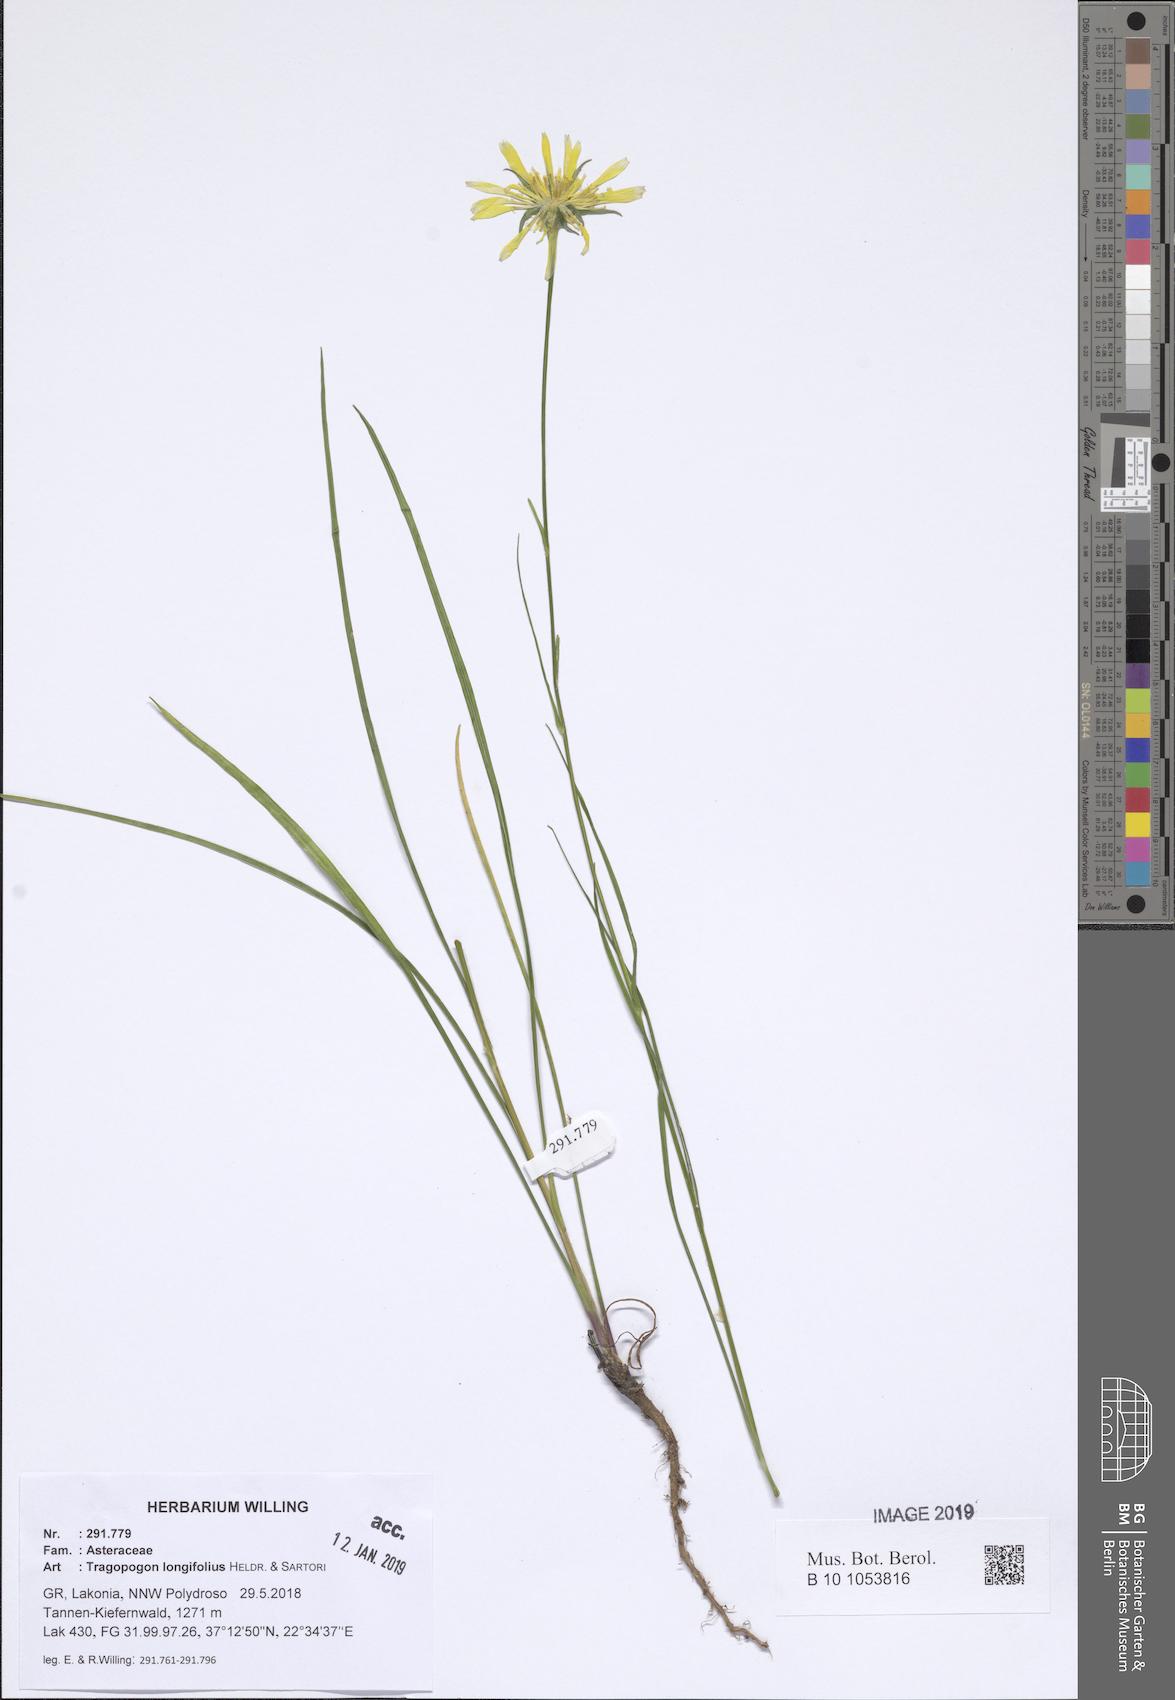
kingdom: Plantae
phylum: Tracheophyta
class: Magnoliopsida
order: Asterales
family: Asteraceae
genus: Tragopogon
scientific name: Tragopogon longifolius
